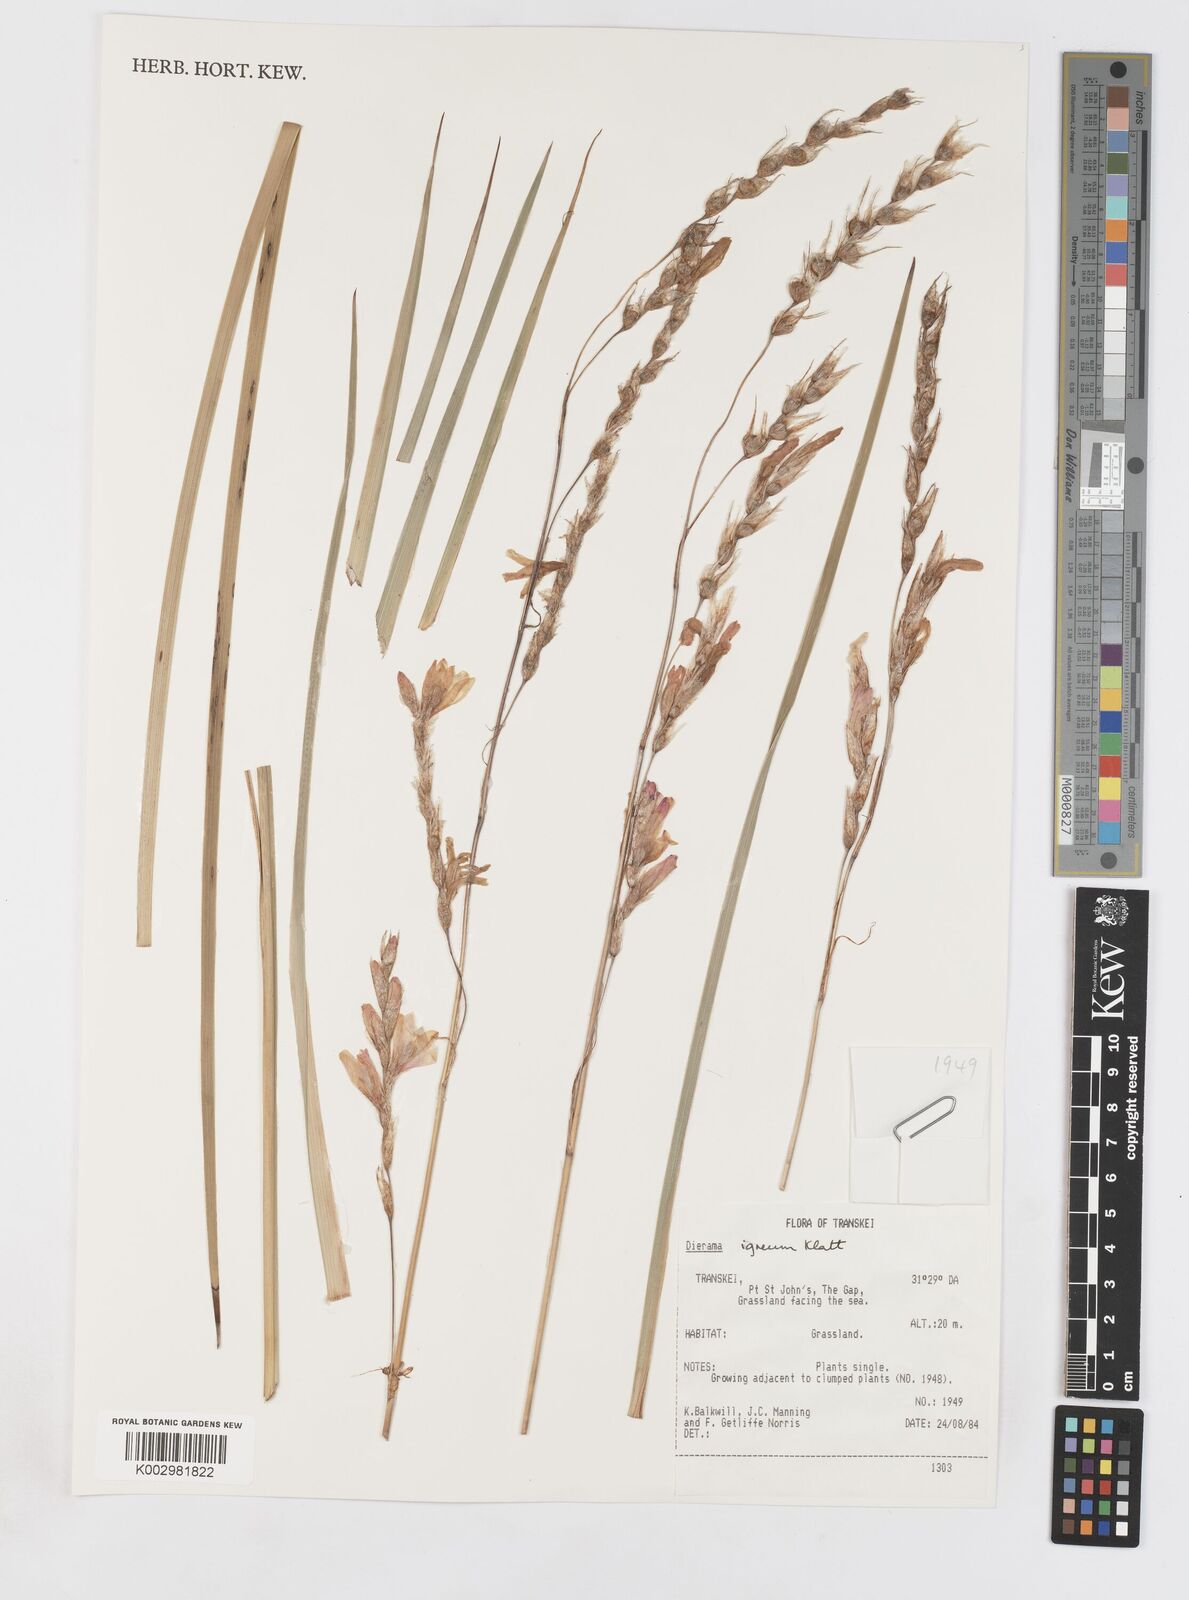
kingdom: Plantae
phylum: Tracheophyta
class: Liliopsida
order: Asparagales
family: Iridaceae
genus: Dierama
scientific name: Dierama igneum
